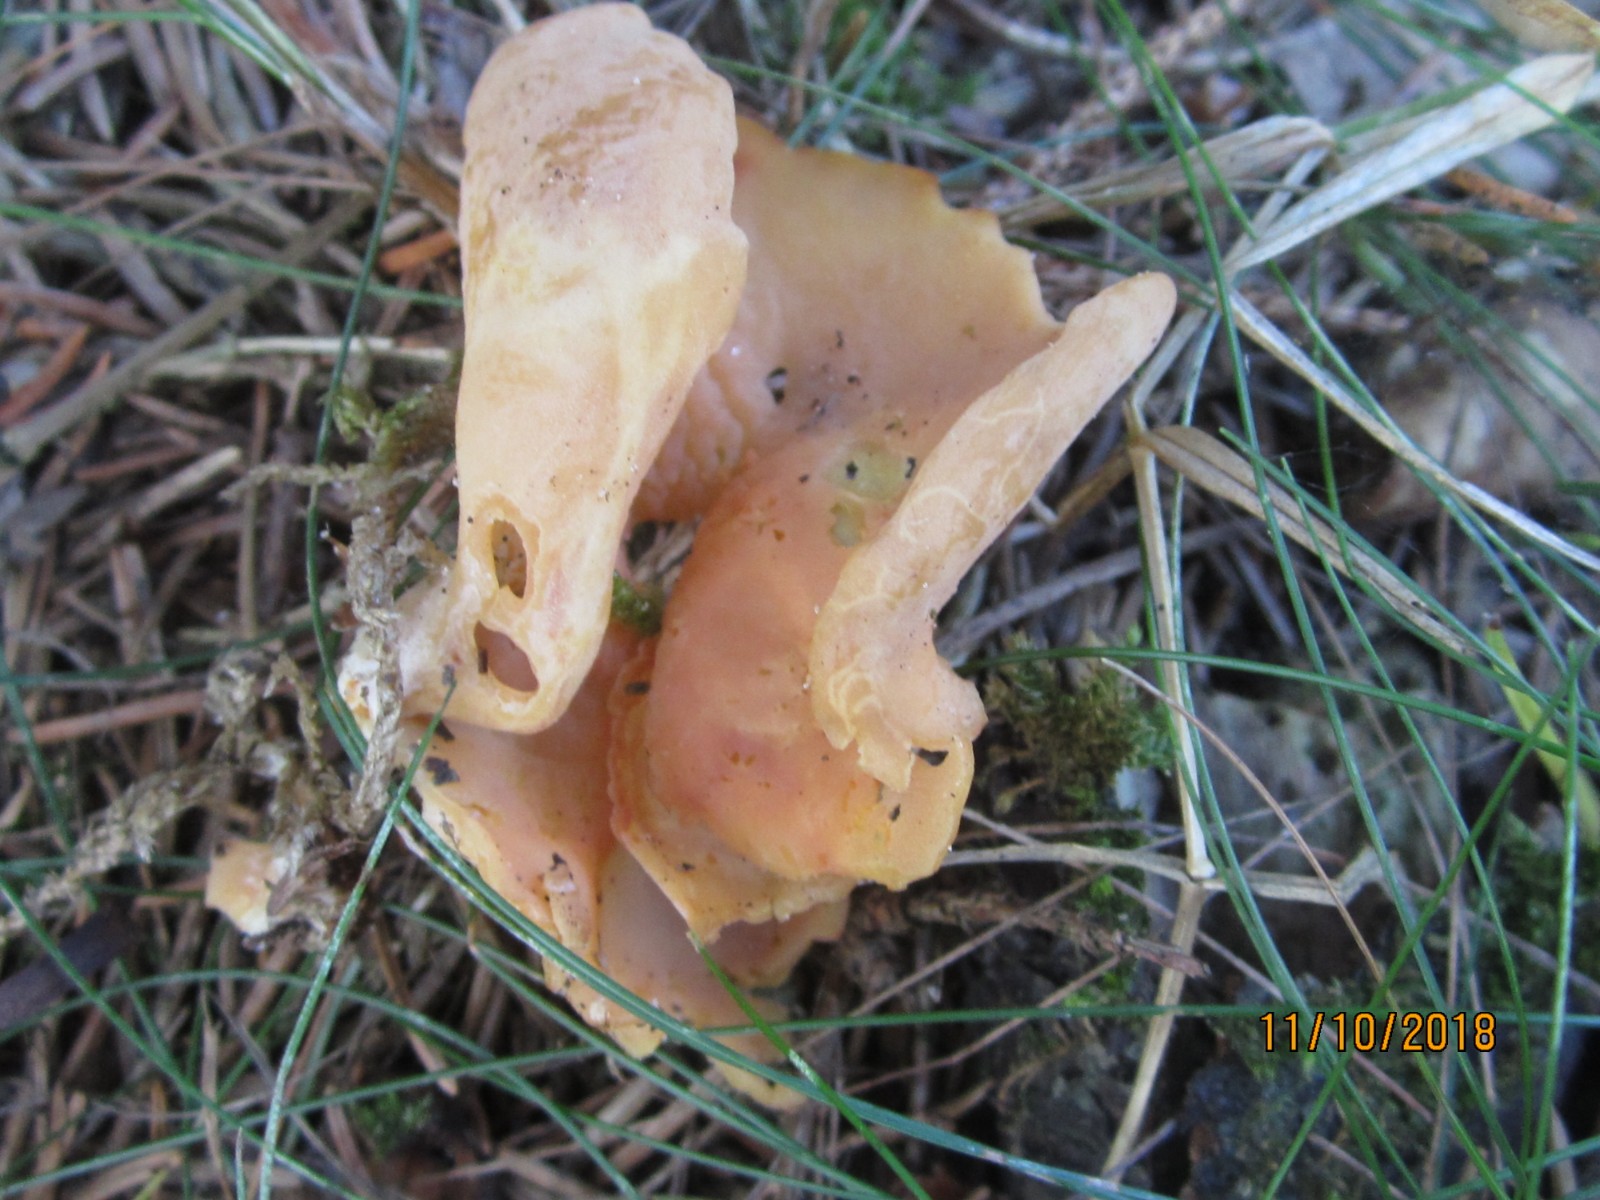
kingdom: Fungi
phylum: Ascomycota
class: Pezizomycetes
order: Pezizales
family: Otideaceae
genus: Otidea
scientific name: Otidea onotica
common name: æsel-ørebæger
